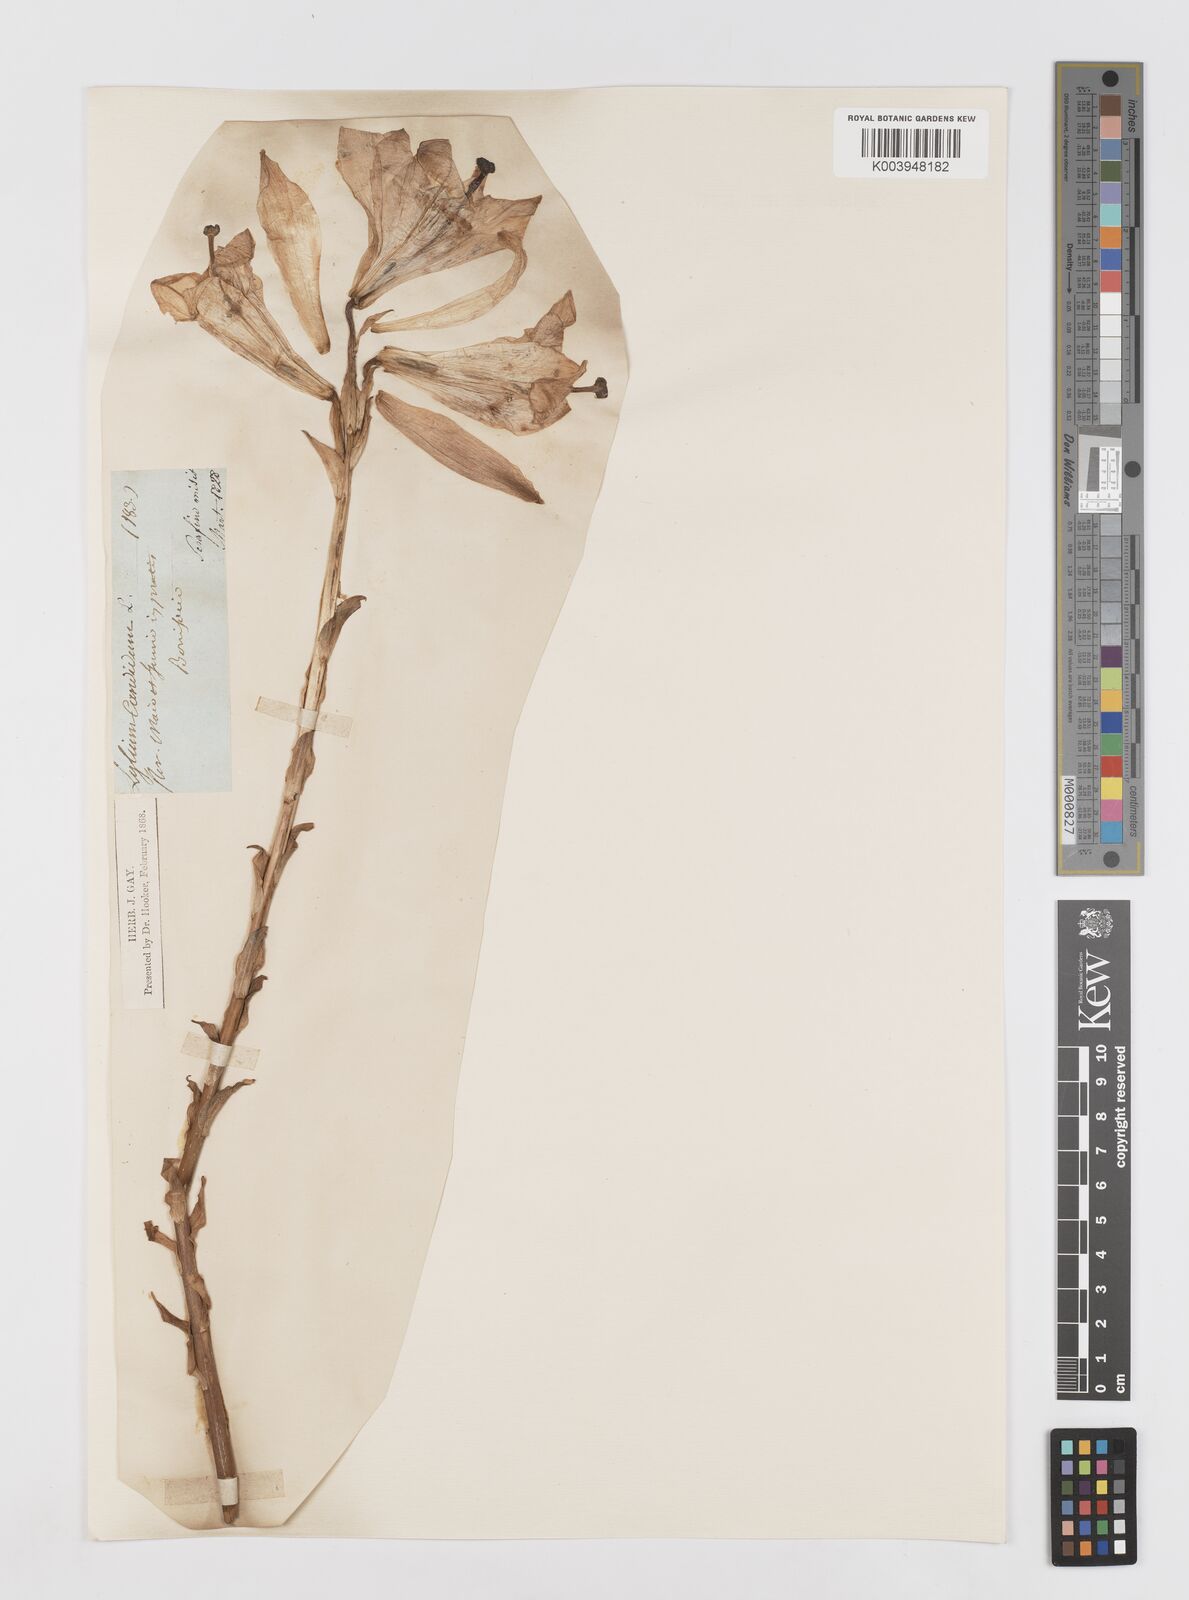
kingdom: Plantae
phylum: Tracheophyta
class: Liliopsida
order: Liliales
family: Liliaceae
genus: Lilium
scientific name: Lilium candidum
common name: Madonna lily
